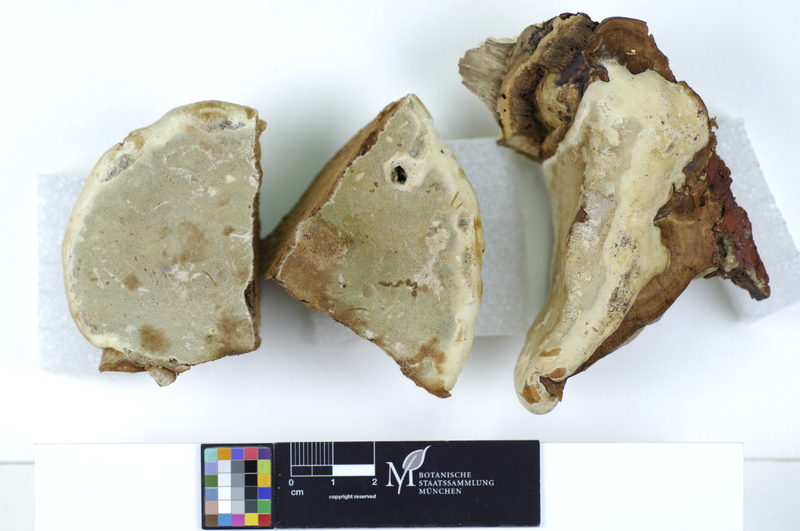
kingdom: Fungi
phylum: Basidiomycota
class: Agaricomycetes
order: Polyporales
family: Polyporaceae
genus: Ganoderma
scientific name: Ganoderma applanatum
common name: Artist's bracket
